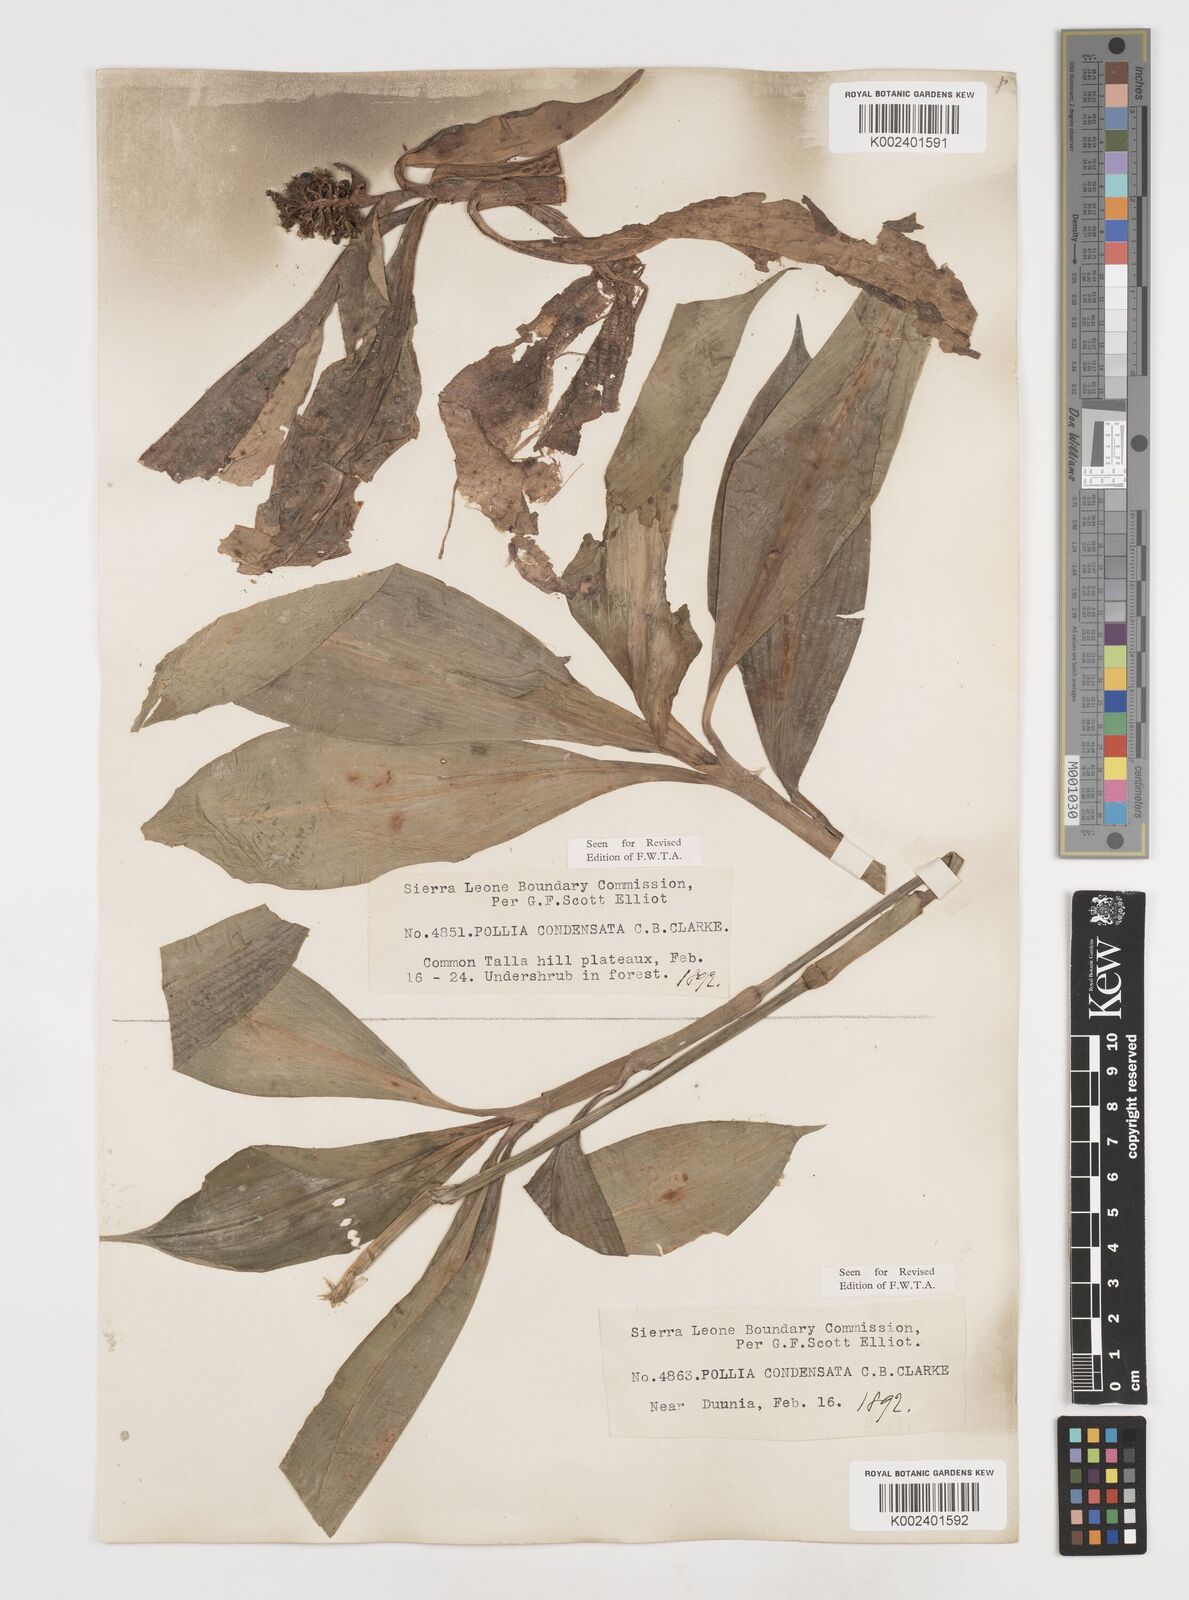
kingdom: Plantae
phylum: Tracheophyta
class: Liliopsida
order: Commelinales
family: Commelinaceae
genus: Pollia
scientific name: Pollia condensata
